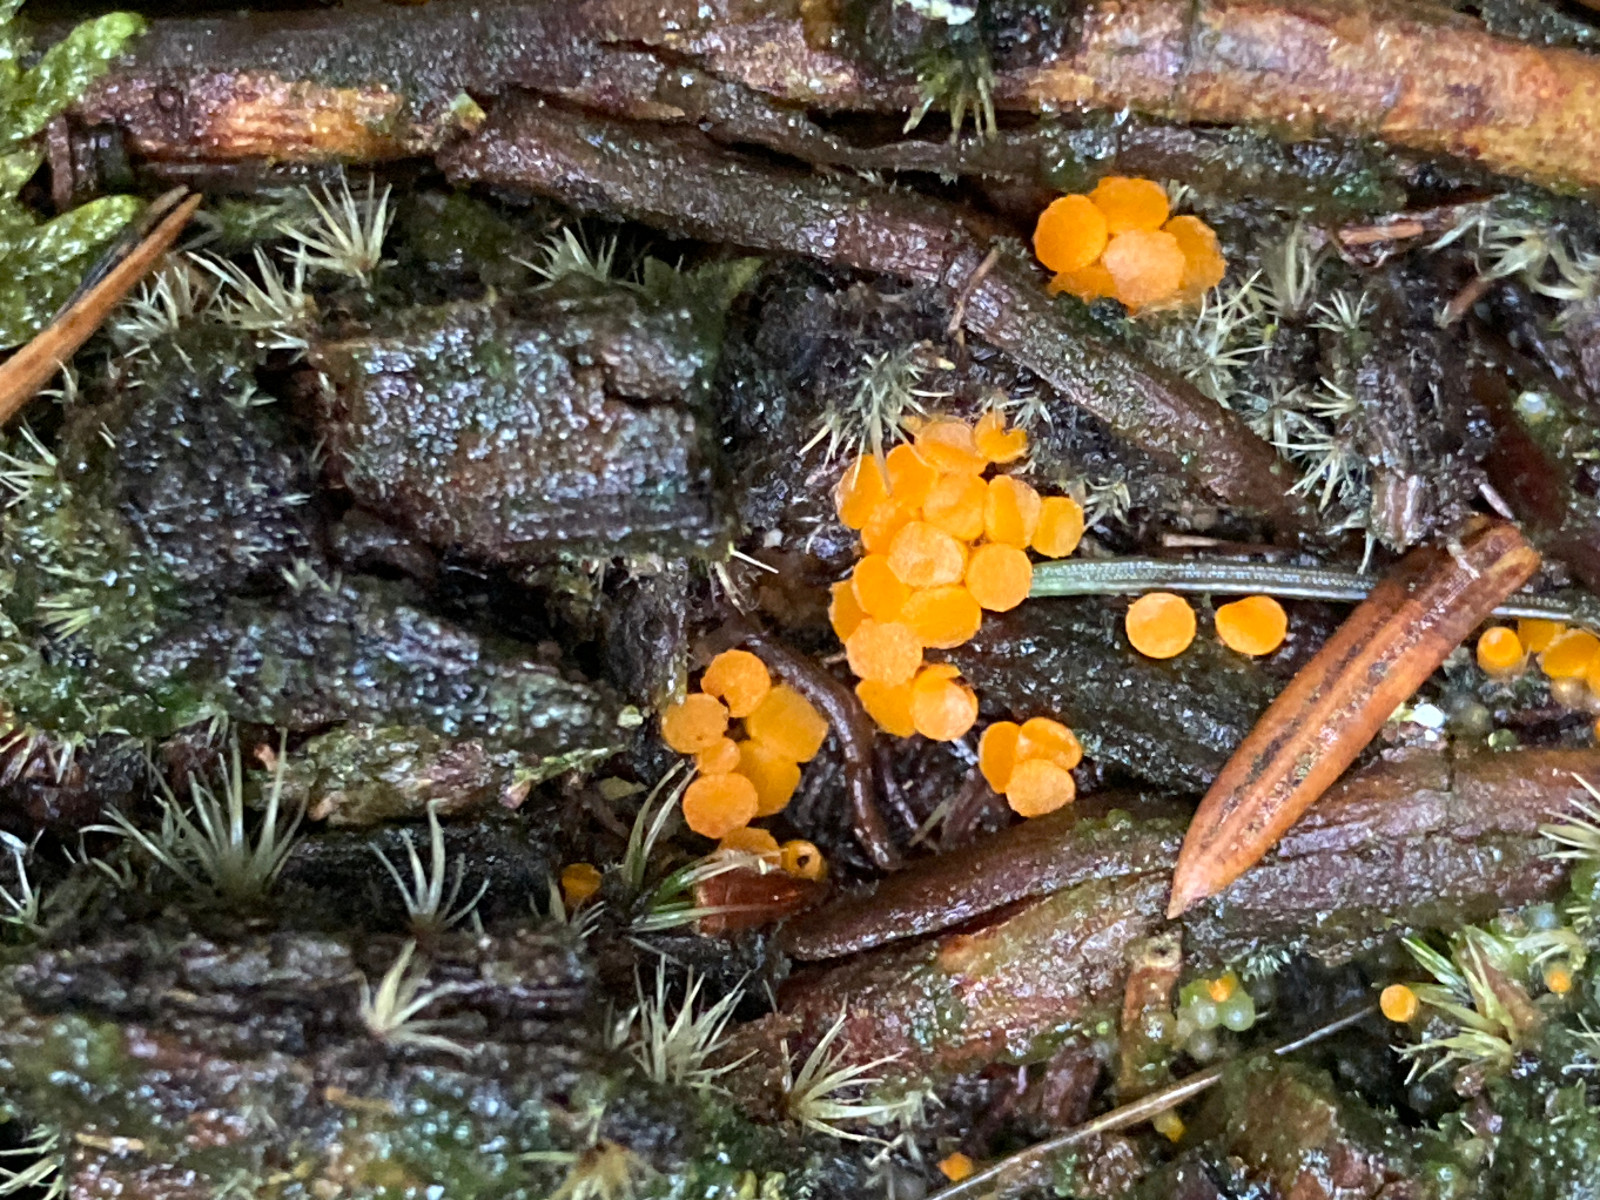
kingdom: Fungi
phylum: Ascomycota
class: Pezizomycetes
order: Pezizales
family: Pyronemataceae
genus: Byssonectria
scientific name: Byssonectria terrestris
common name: hjortebæger
